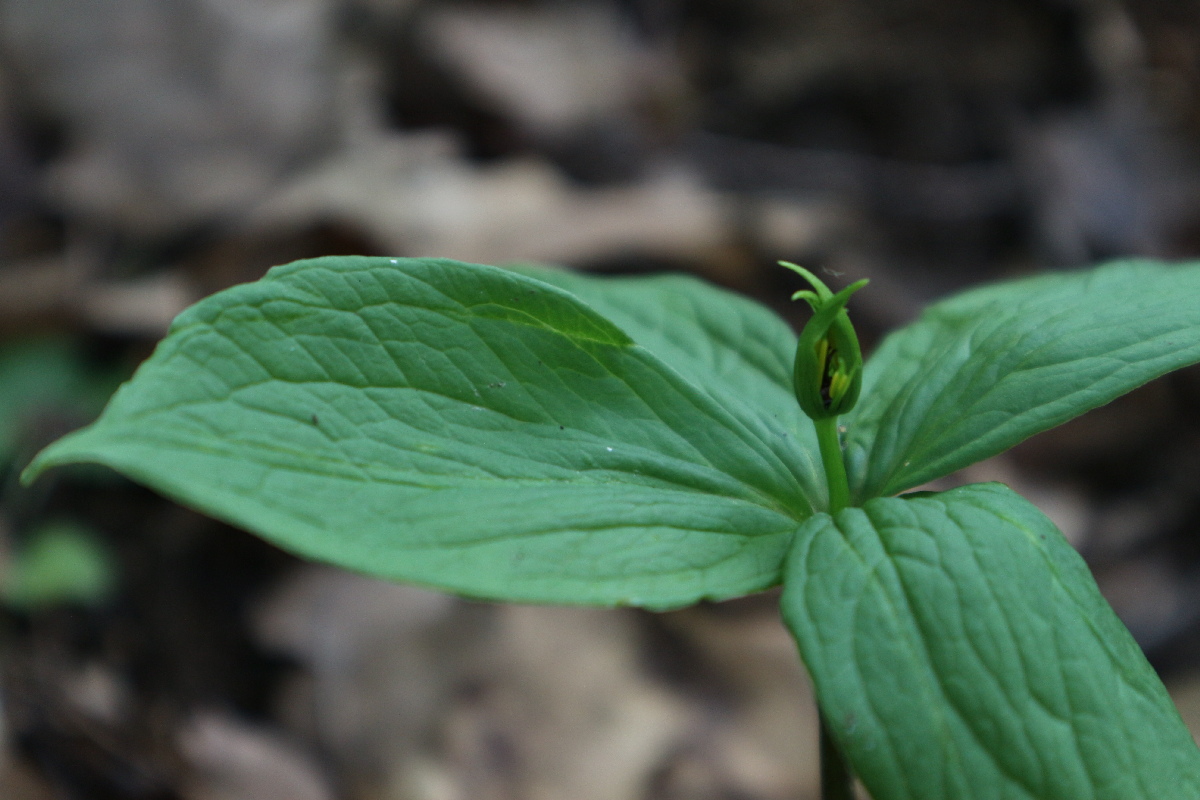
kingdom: Plantae
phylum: Tracheophyta
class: Liliopsida
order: Liliales
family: Melanthiaceae
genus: Paris
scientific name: Paris quadrifolia
